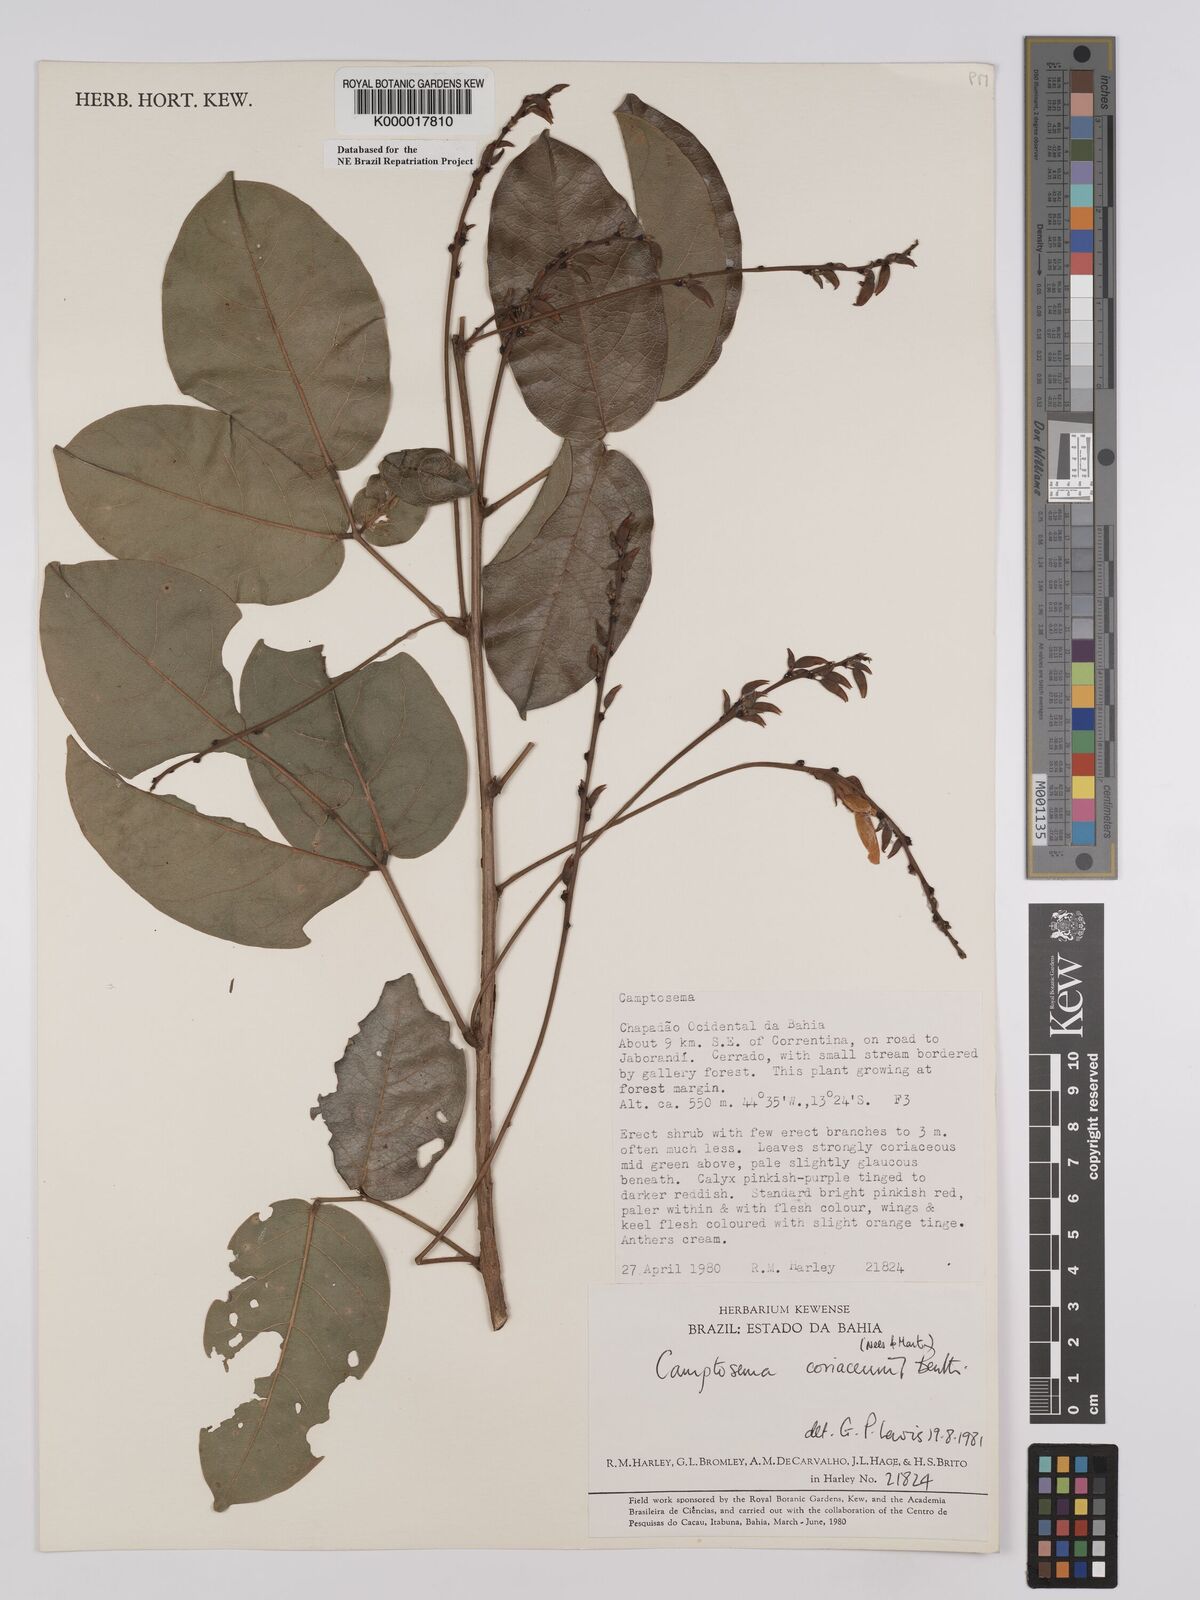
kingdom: Plantae
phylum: Tracheophyta
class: Magnoliopsida
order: Fabales
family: Fabaceae
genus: Camptosema
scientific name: Camptosema coriaceum
